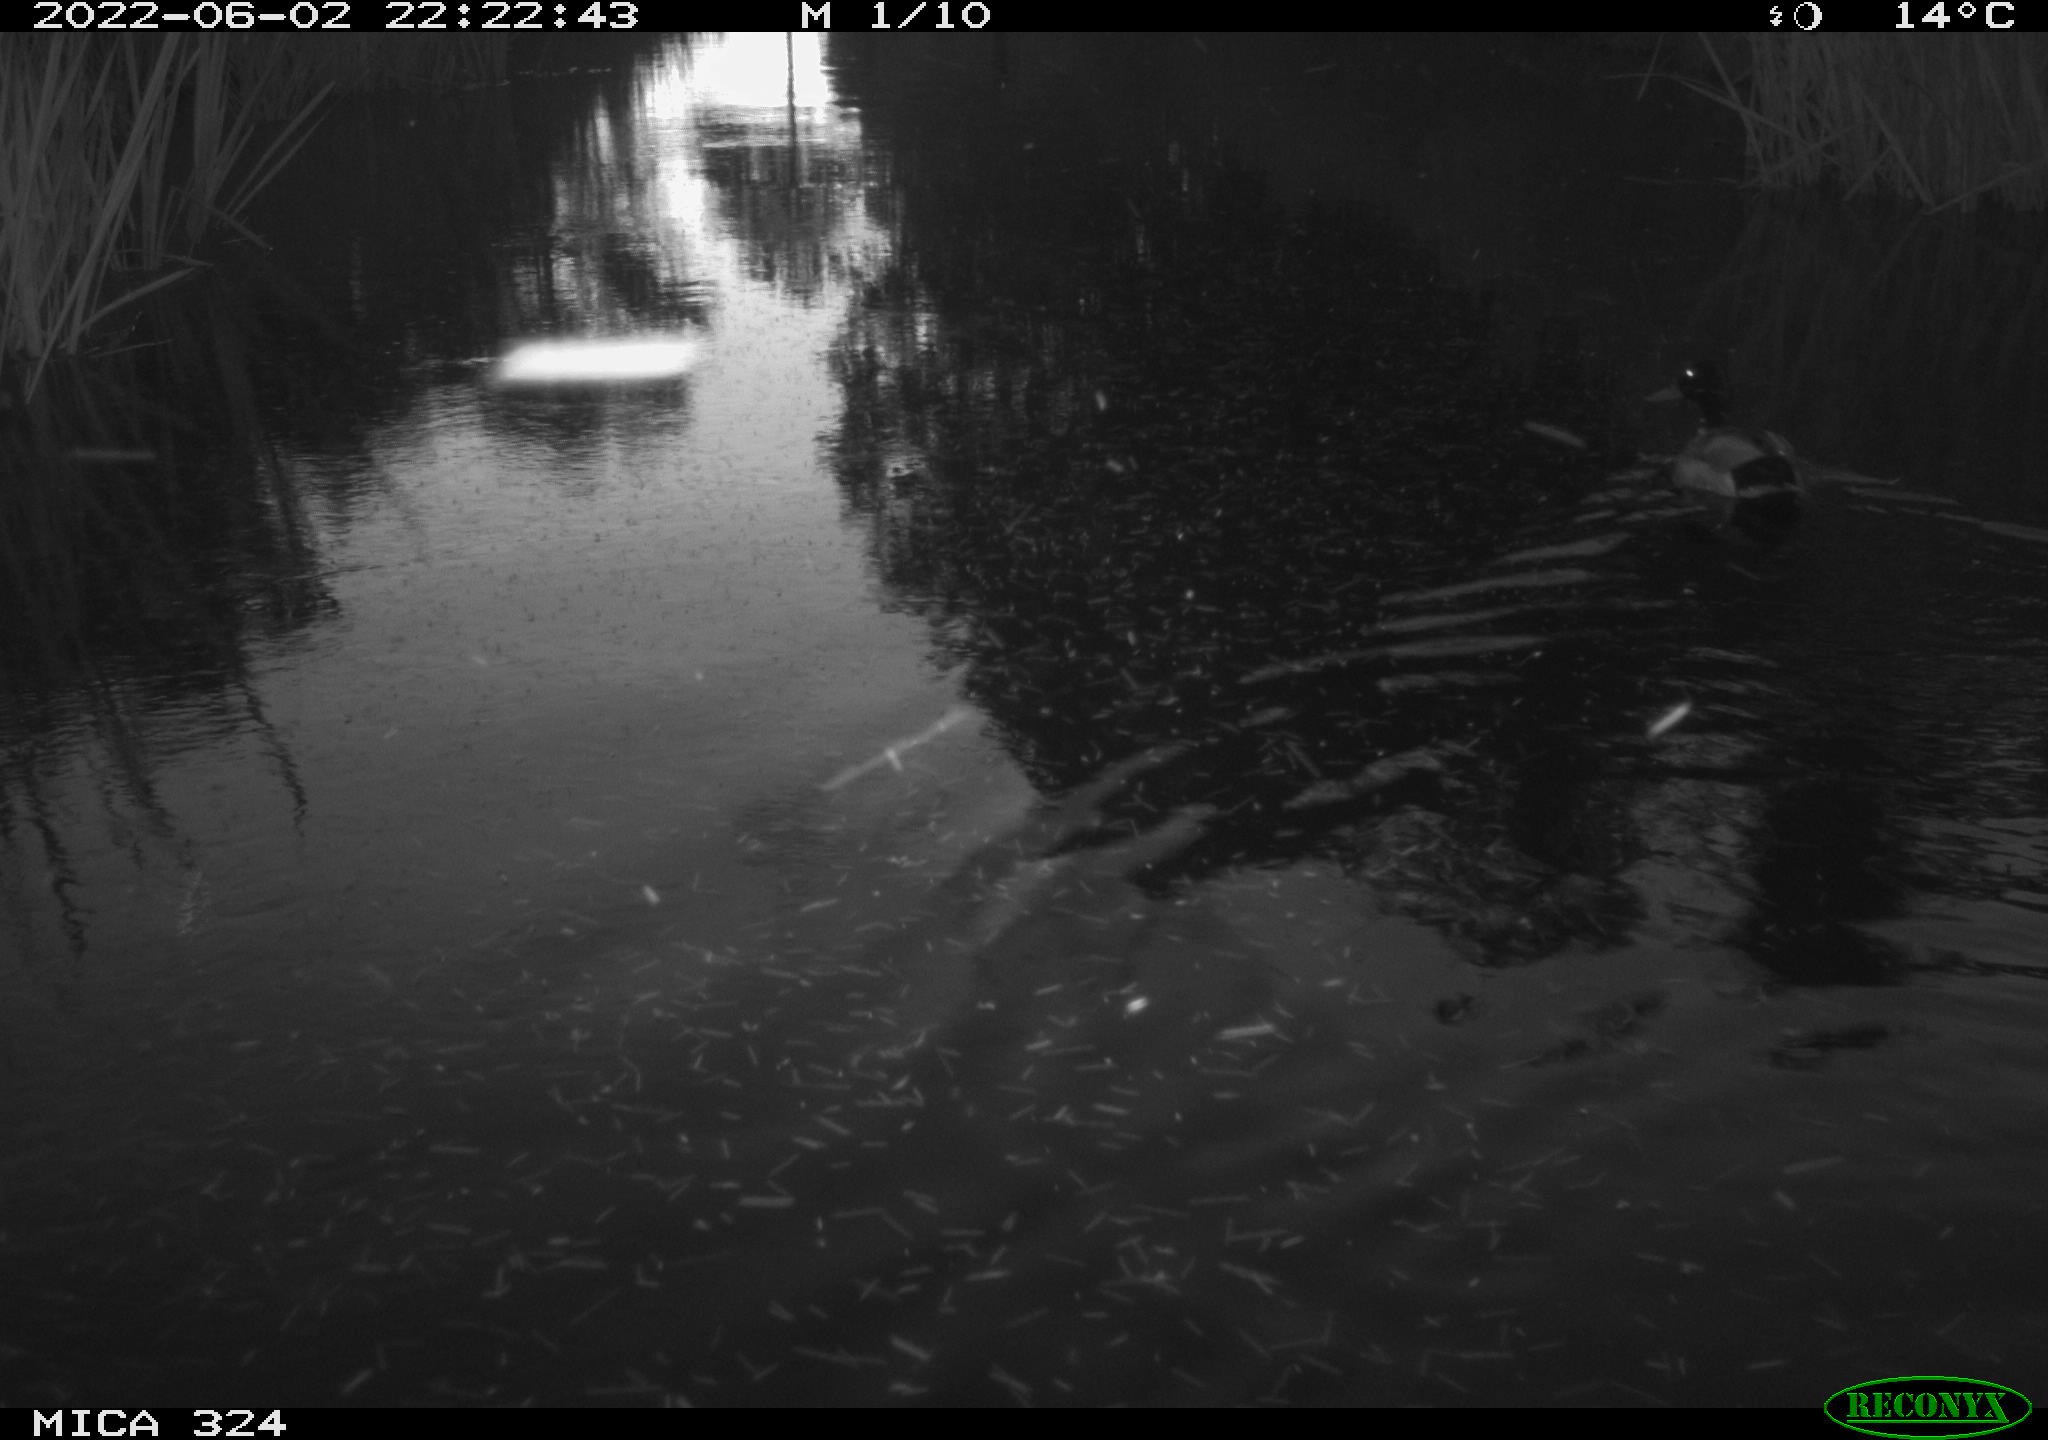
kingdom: Animalia
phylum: Chordata
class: Aves
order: Anseriformes
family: Anatidae
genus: Anas
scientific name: Anas
